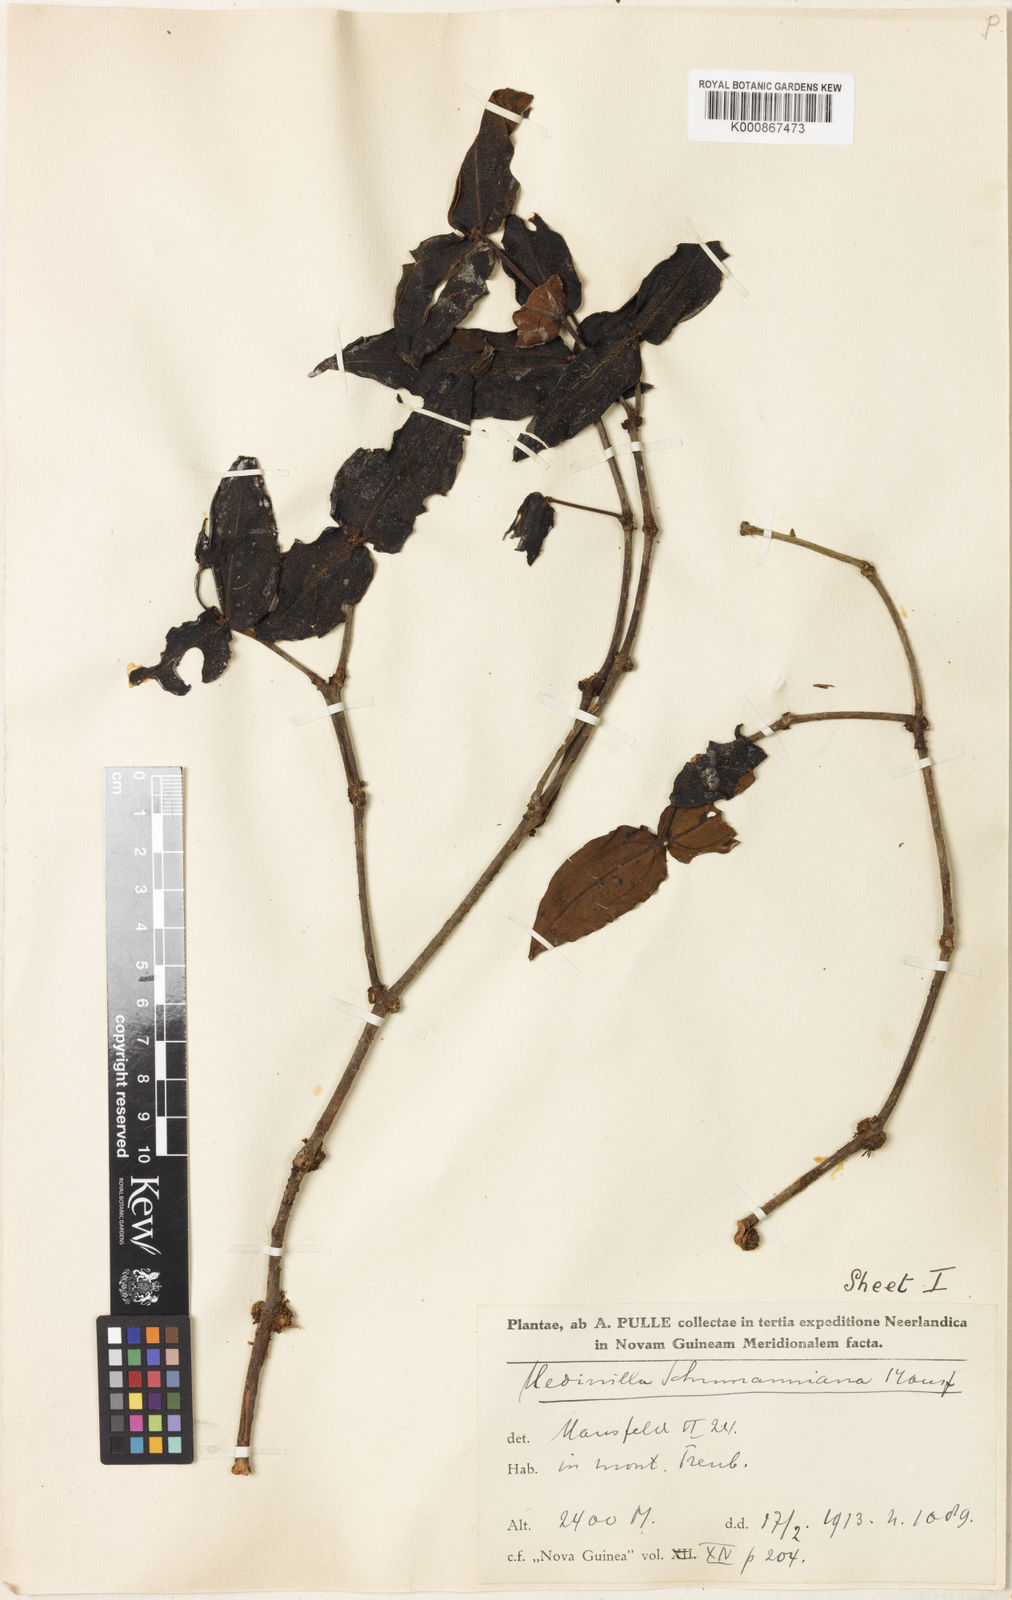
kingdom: Plantae
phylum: Tracheophyta
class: Magnoliopsida
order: Myrtales
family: Melastomataceae
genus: Medinilla
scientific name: Medinilla schumanniana
